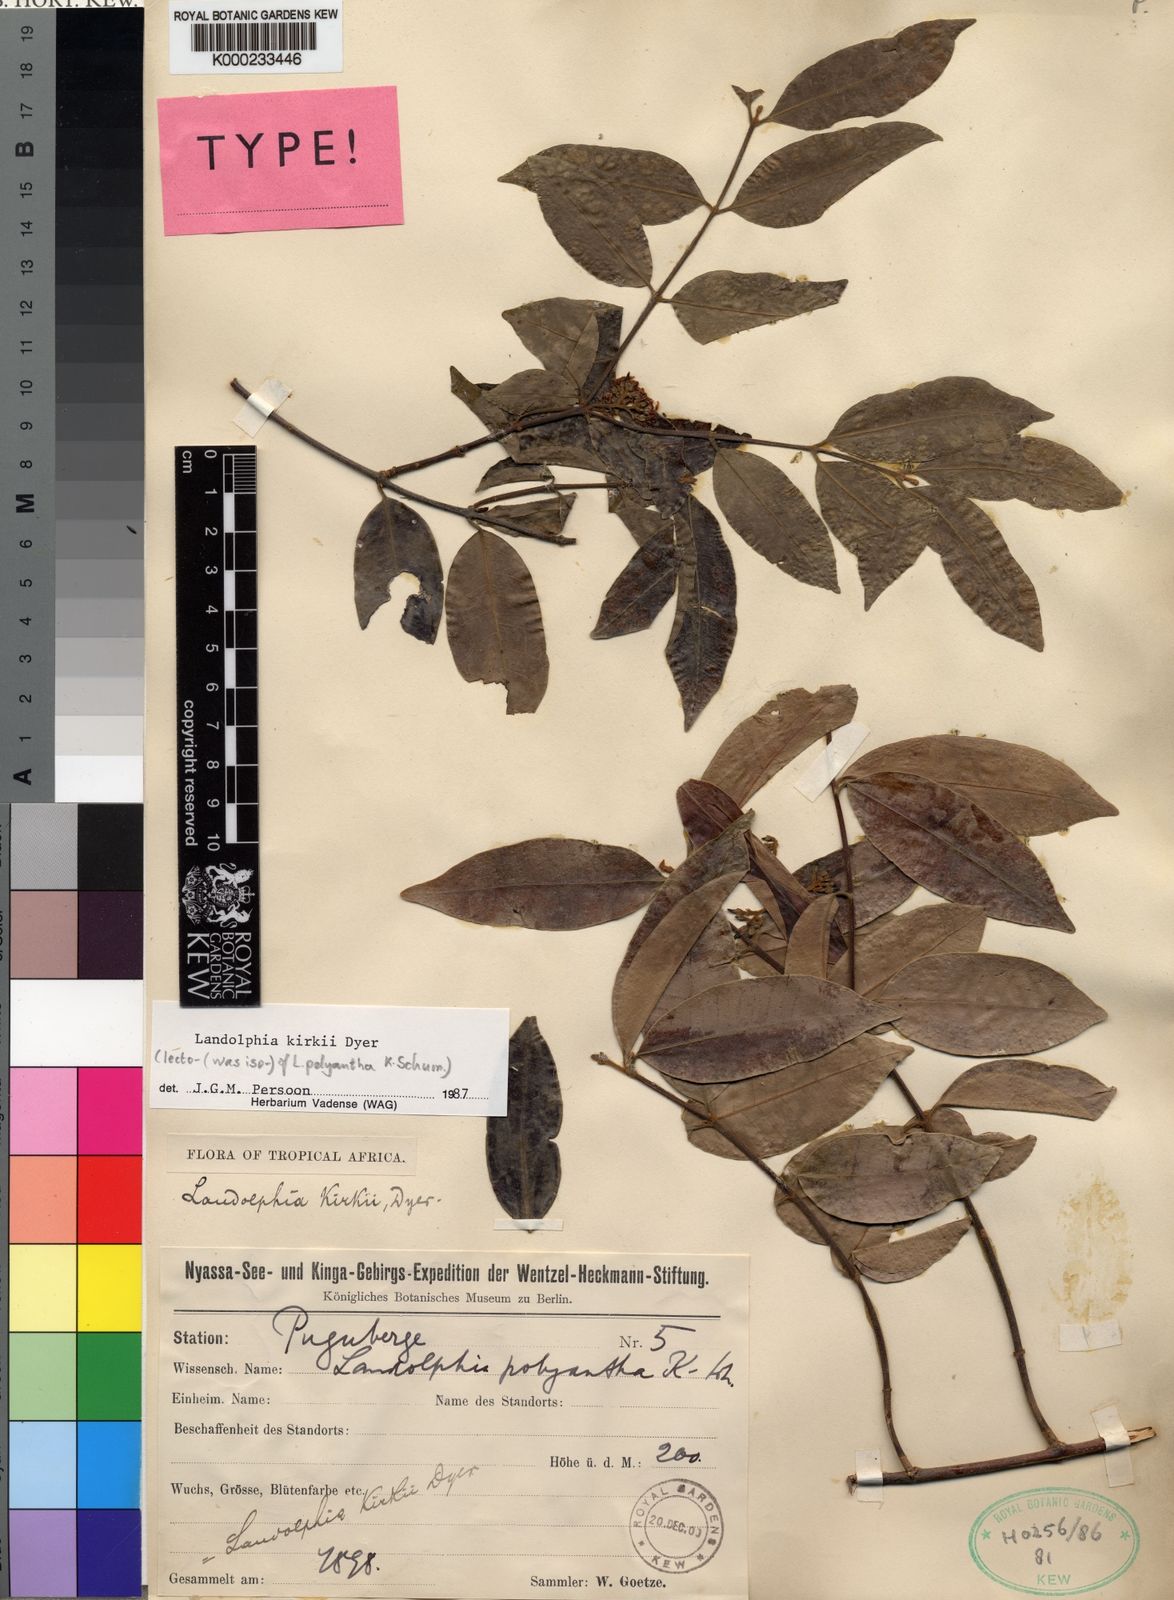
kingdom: Plantae
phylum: Tracheophyta
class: Magnoliopsida
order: Gentianales
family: Apocynaceae
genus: Landolphia
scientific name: Landolphia kirkii
